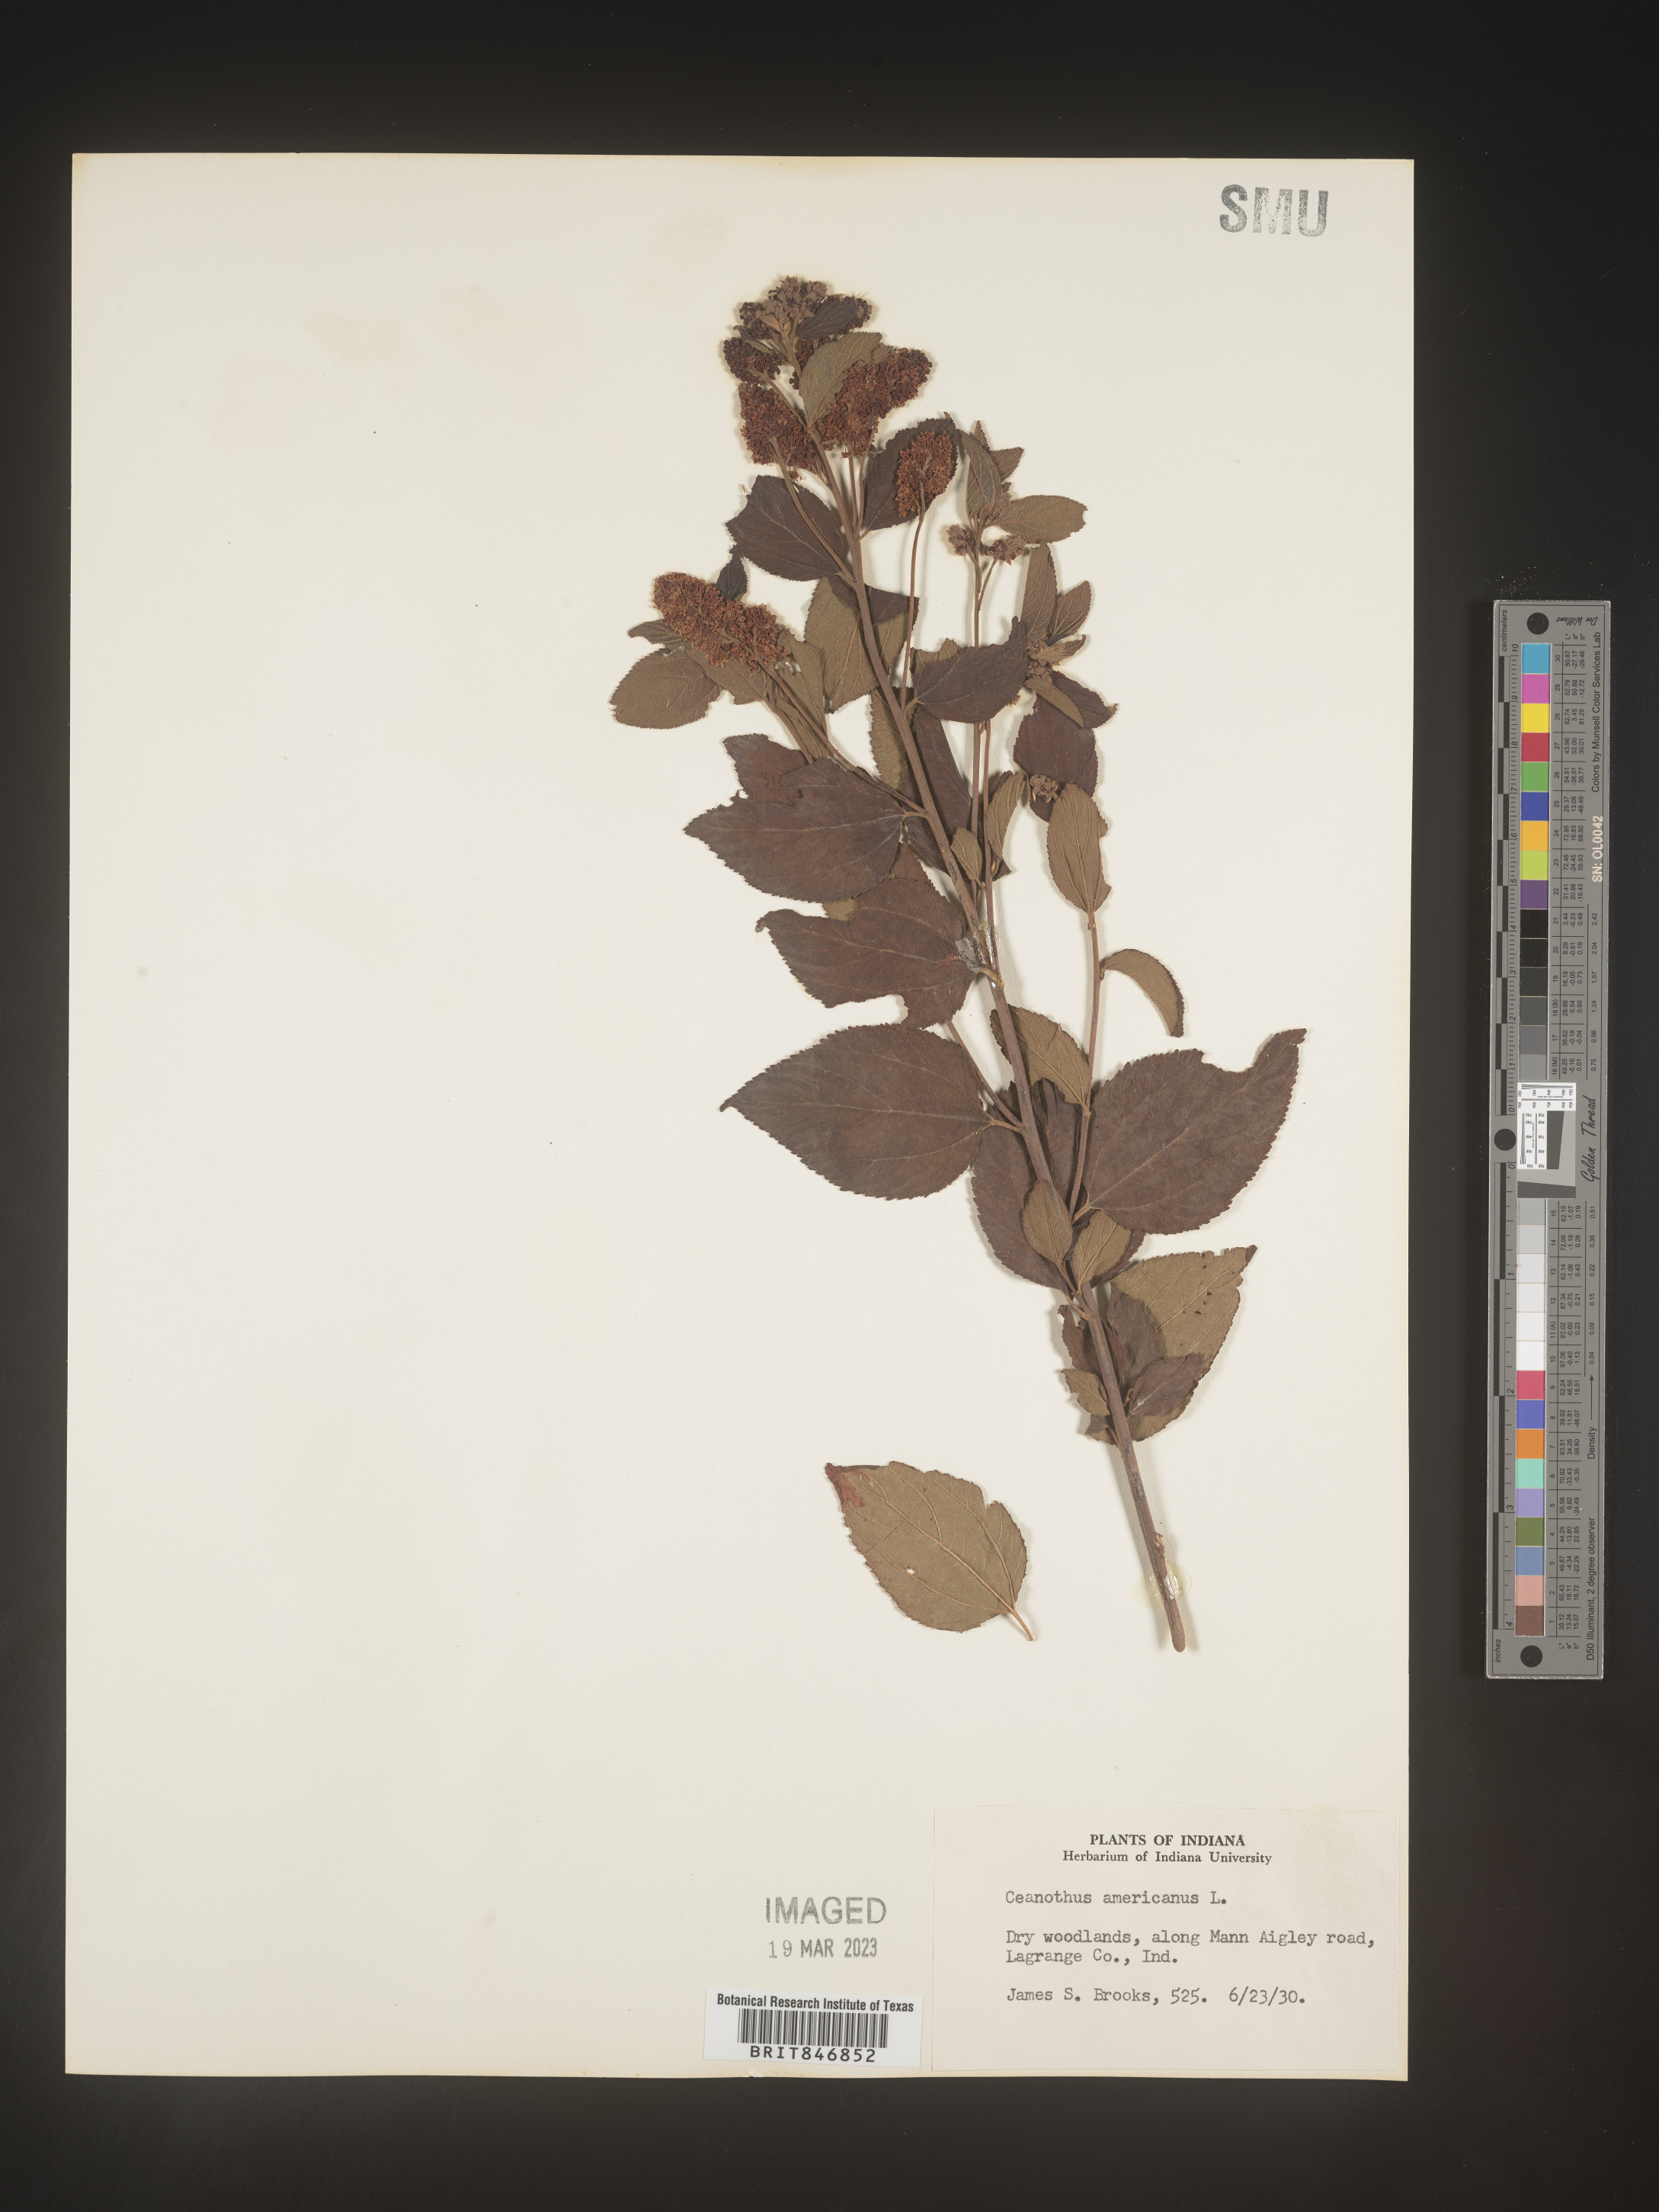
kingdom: Plantae
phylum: Tracheophyta
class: Magnoliopsida
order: Rosales
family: Rhamnaceae
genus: Ceanothus
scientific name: Ceanothus americanus
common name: Redroot
